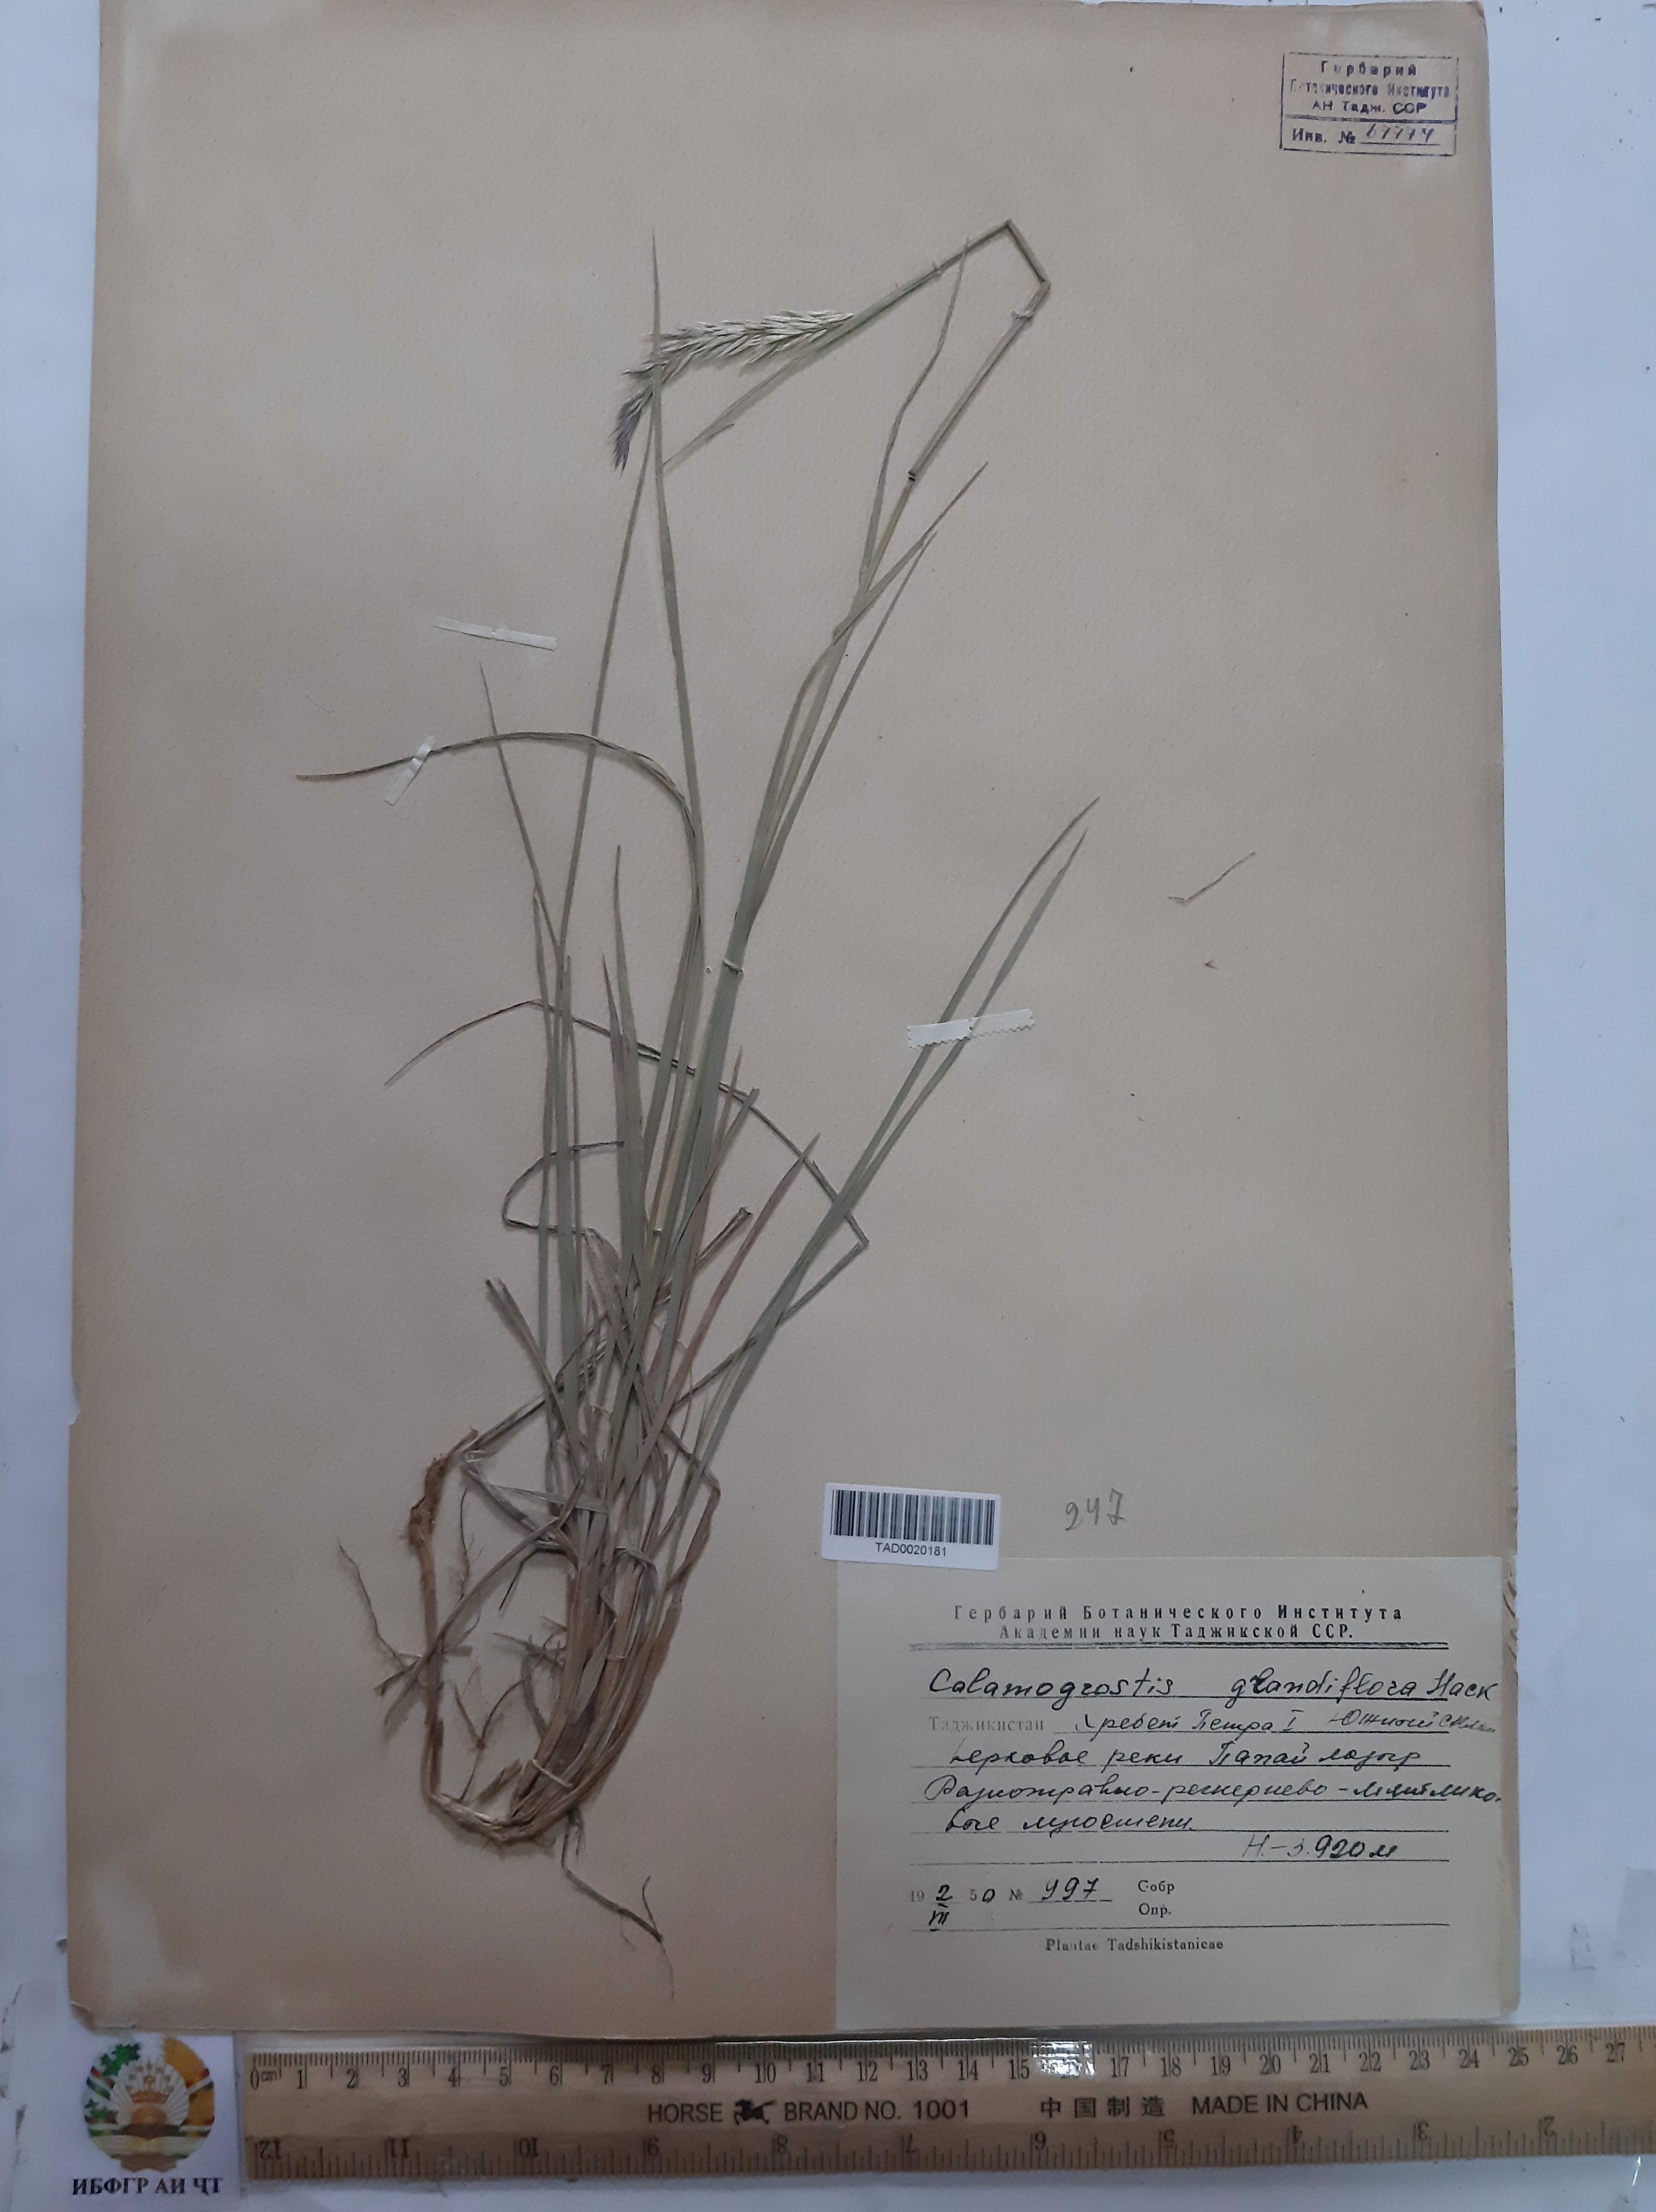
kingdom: Plantae
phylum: Tracheophyta
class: Liliopsida
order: Poales
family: Poaceae
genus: Calamagrostis
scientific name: Calamagrostis holciformis
